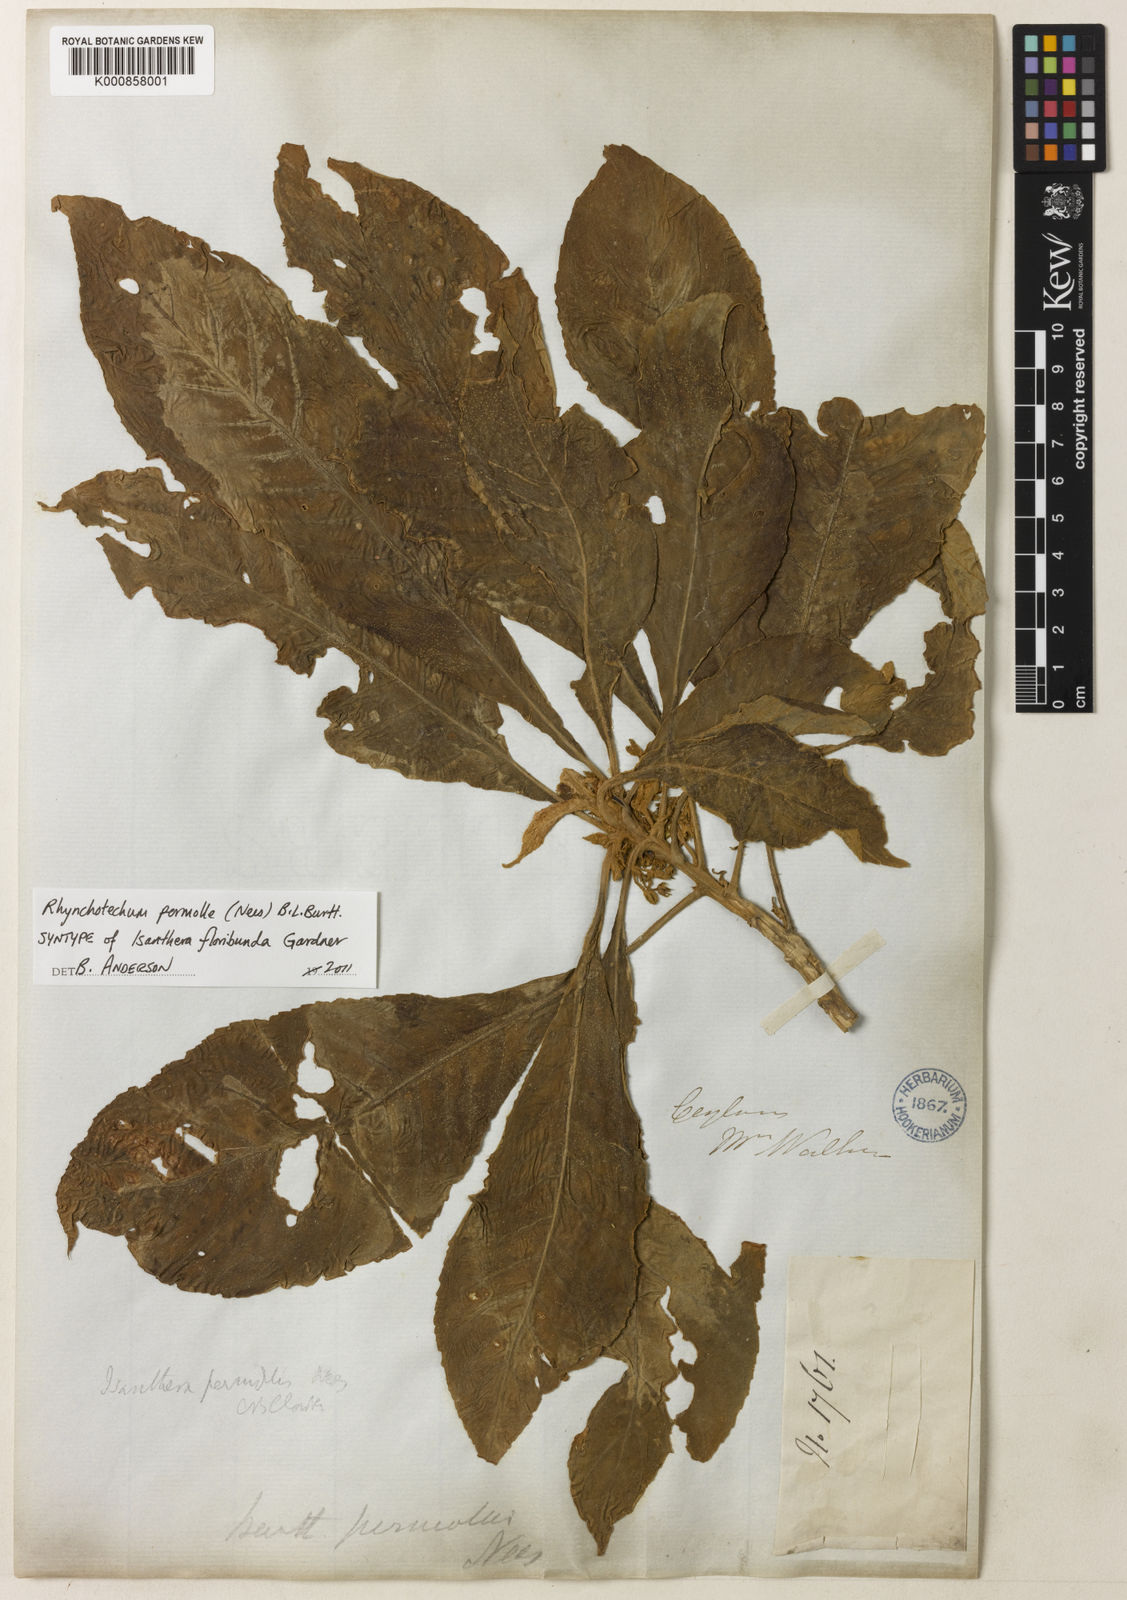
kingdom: Plantae
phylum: Tracheophyta
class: Magnoliopsida
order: Lamiales
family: Gesneriaceae
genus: Rhynchotechum
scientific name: Rhynchotechum permolle
